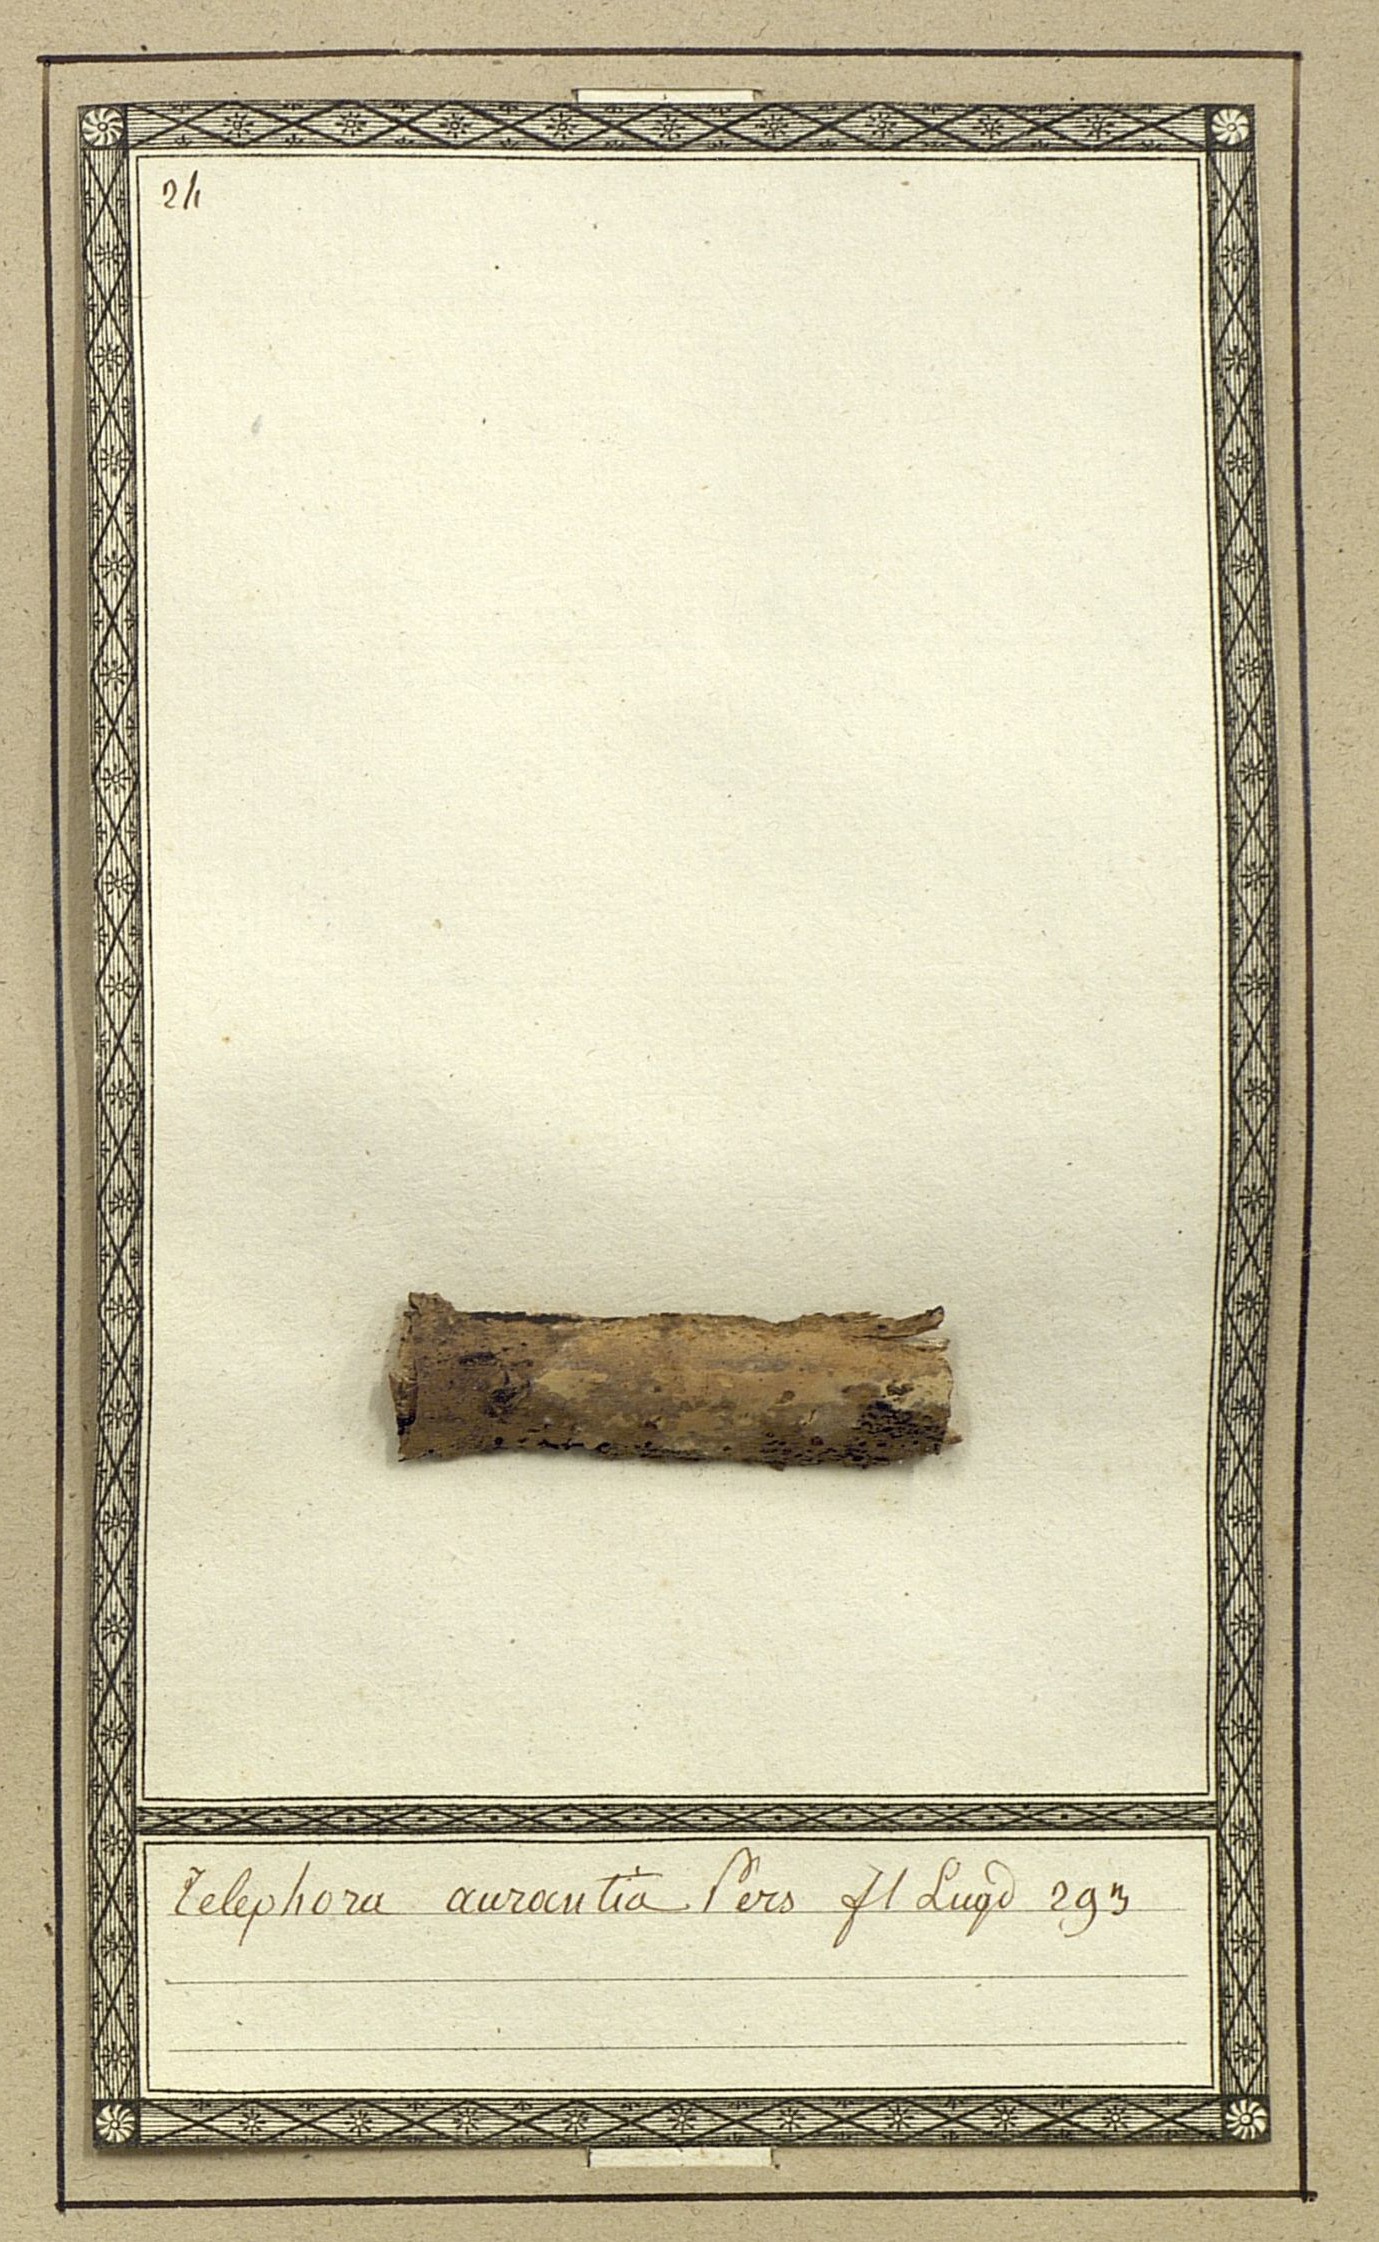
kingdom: Fungi
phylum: Basidiomycota
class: Agaricomycetes
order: Thelephorales
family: Thelephoraceae
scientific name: Thelephoraceae
